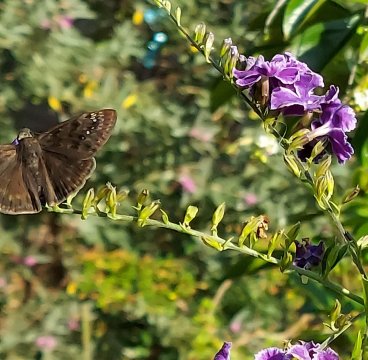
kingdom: Animalia
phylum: Arthropoda
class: Insecta
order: Lepidoptera
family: Hesperiidae
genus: Gesta
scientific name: Gesta
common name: Wild Indigo Duskywing
